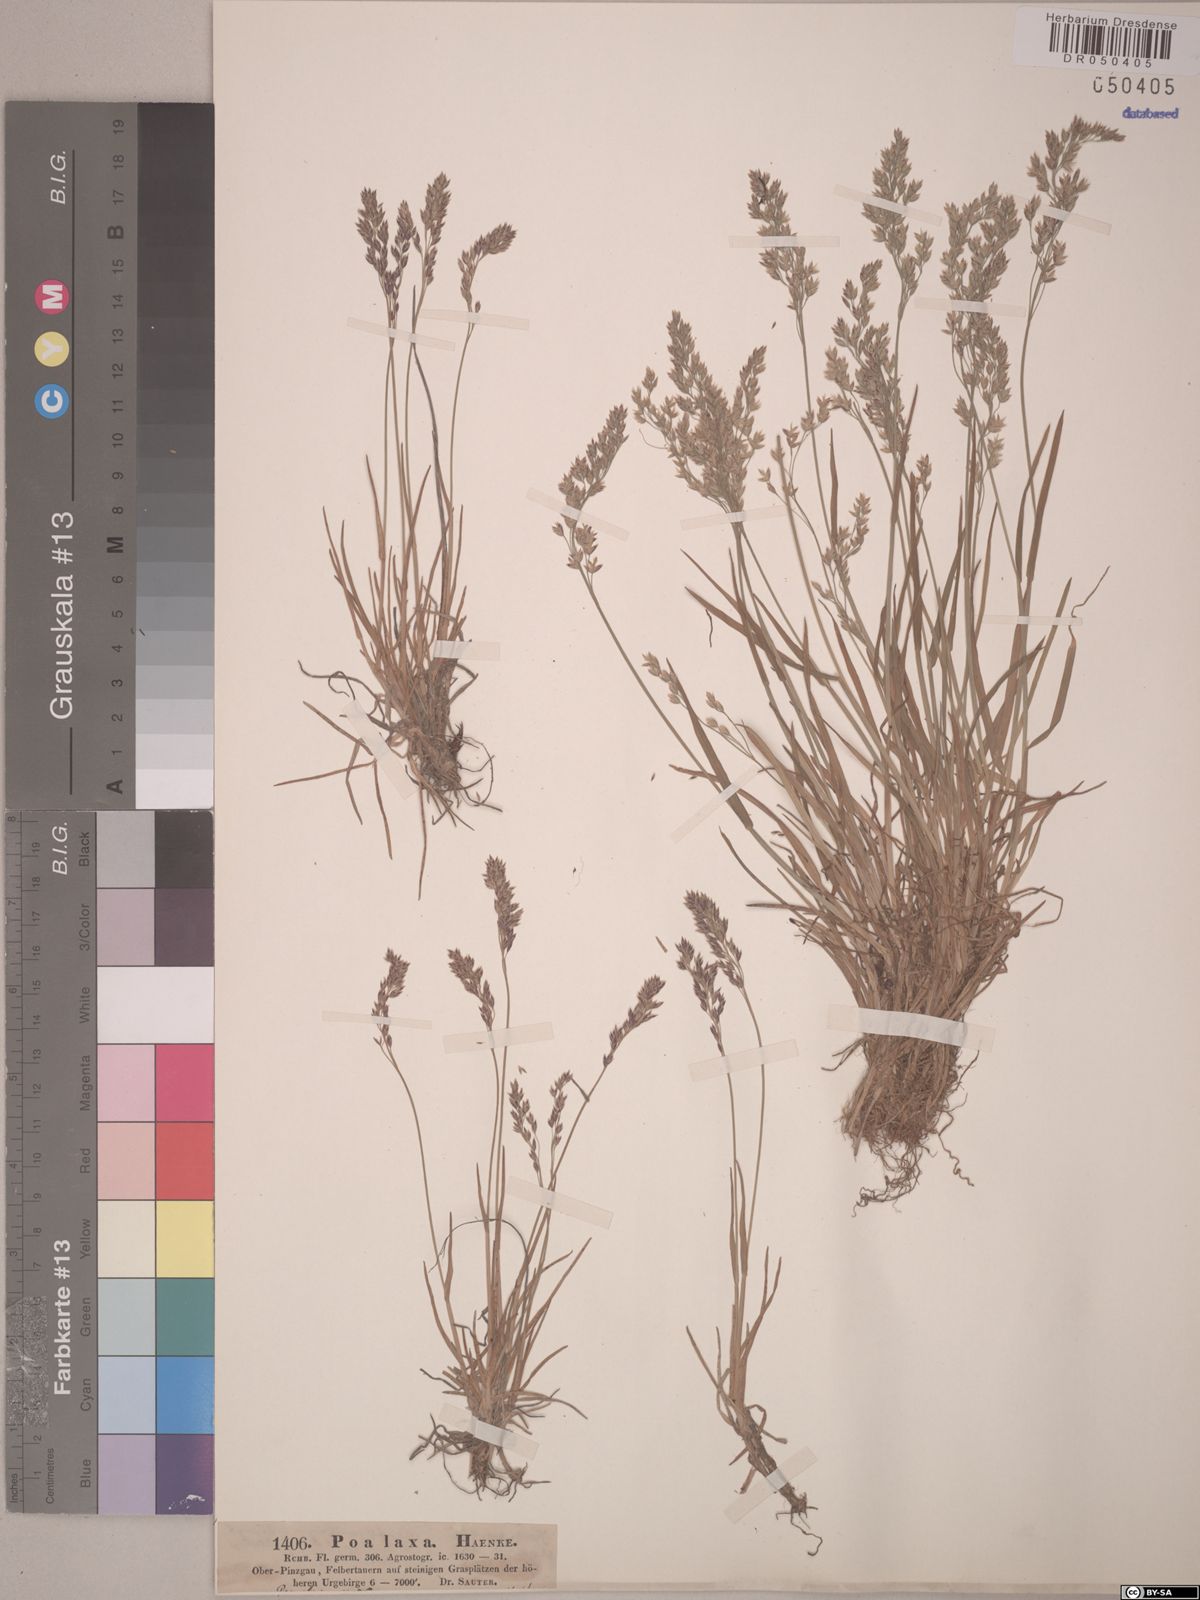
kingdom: Plantae
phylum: Tracheophyta
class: Liliopsida
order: Poales
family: Poaceae
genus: Poa
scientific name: Poa laxa
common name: Lax bluegrass
